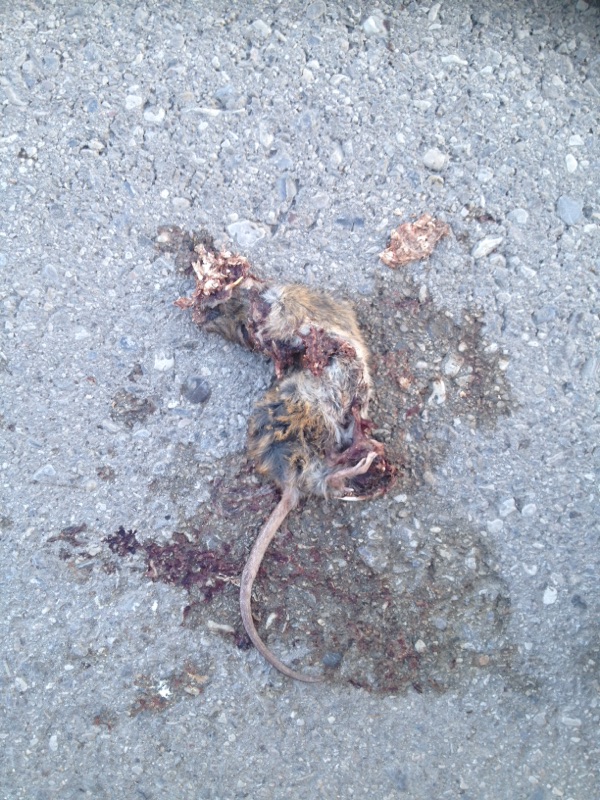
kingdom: Animalia
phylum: Chordata
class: Mammalia
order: Rodentia
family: Muridae
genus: Rattus
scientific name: Rattus norvegicus
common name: Brown rat
